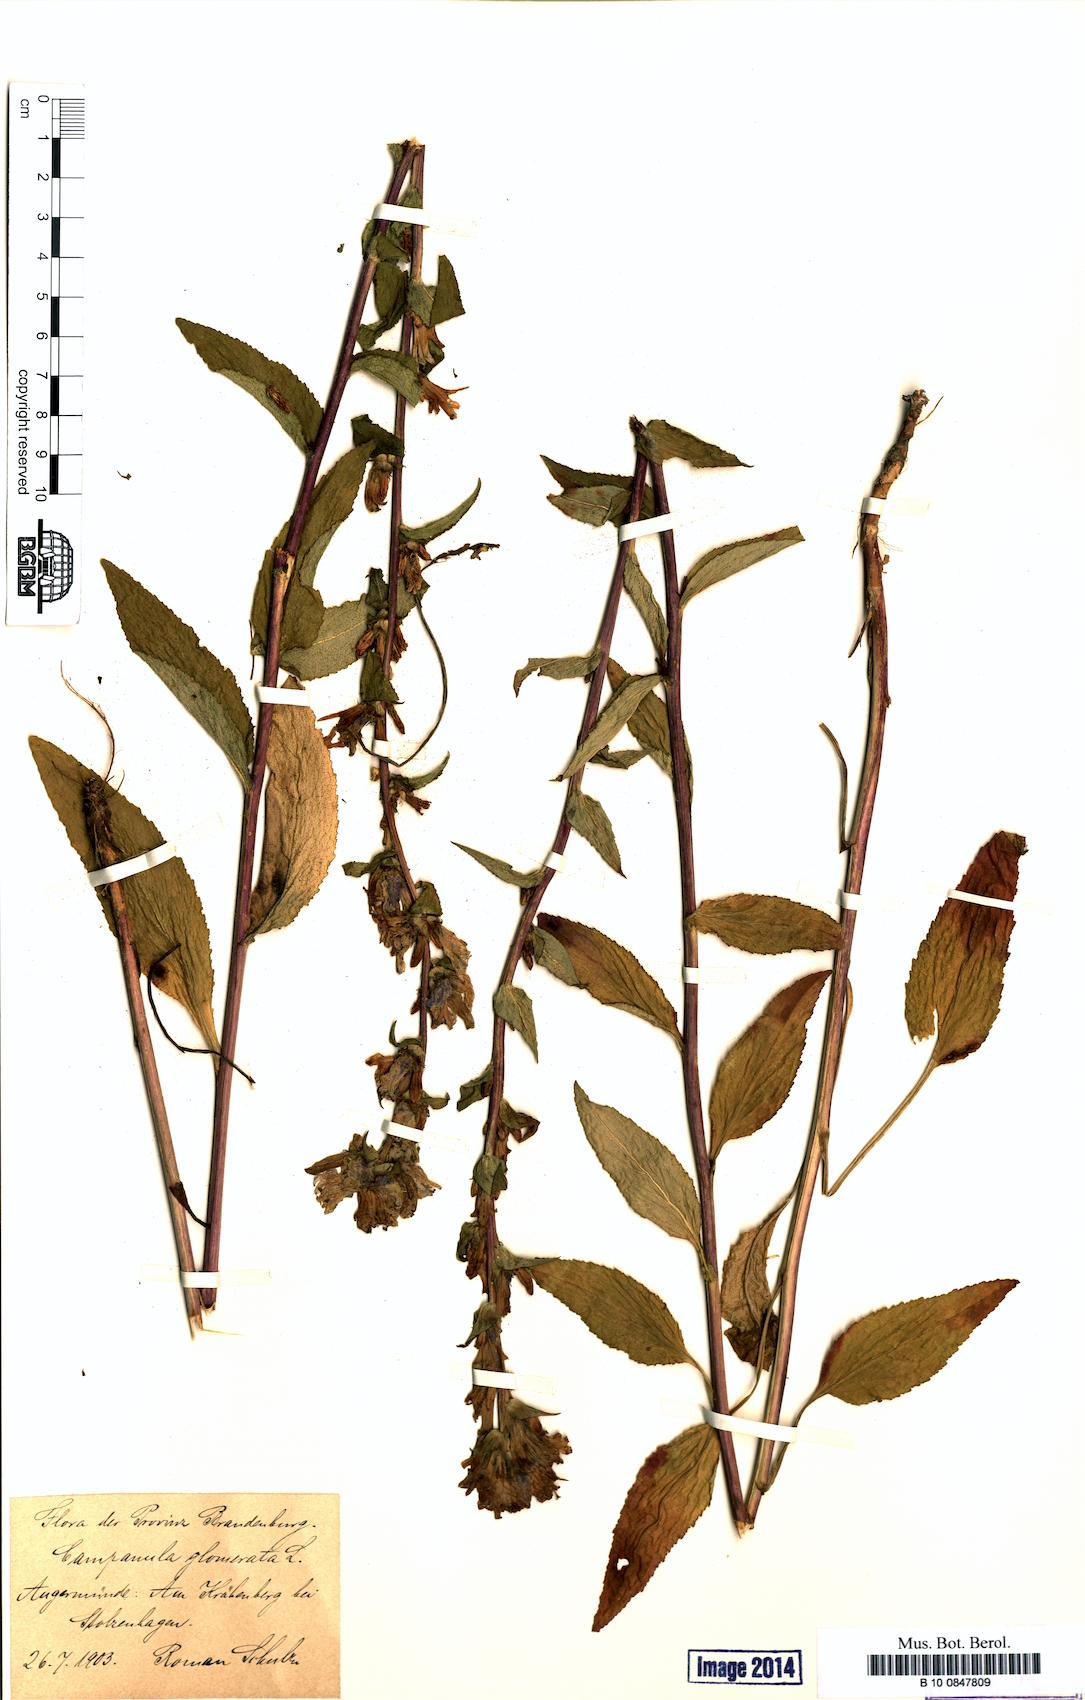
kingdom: Plantae
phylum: Tracheophyta
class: Magnoliopsida
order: Asterales
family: Campanulaceae
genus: Campanula
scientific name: Campanula glomerata
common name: Clustered bellflower
